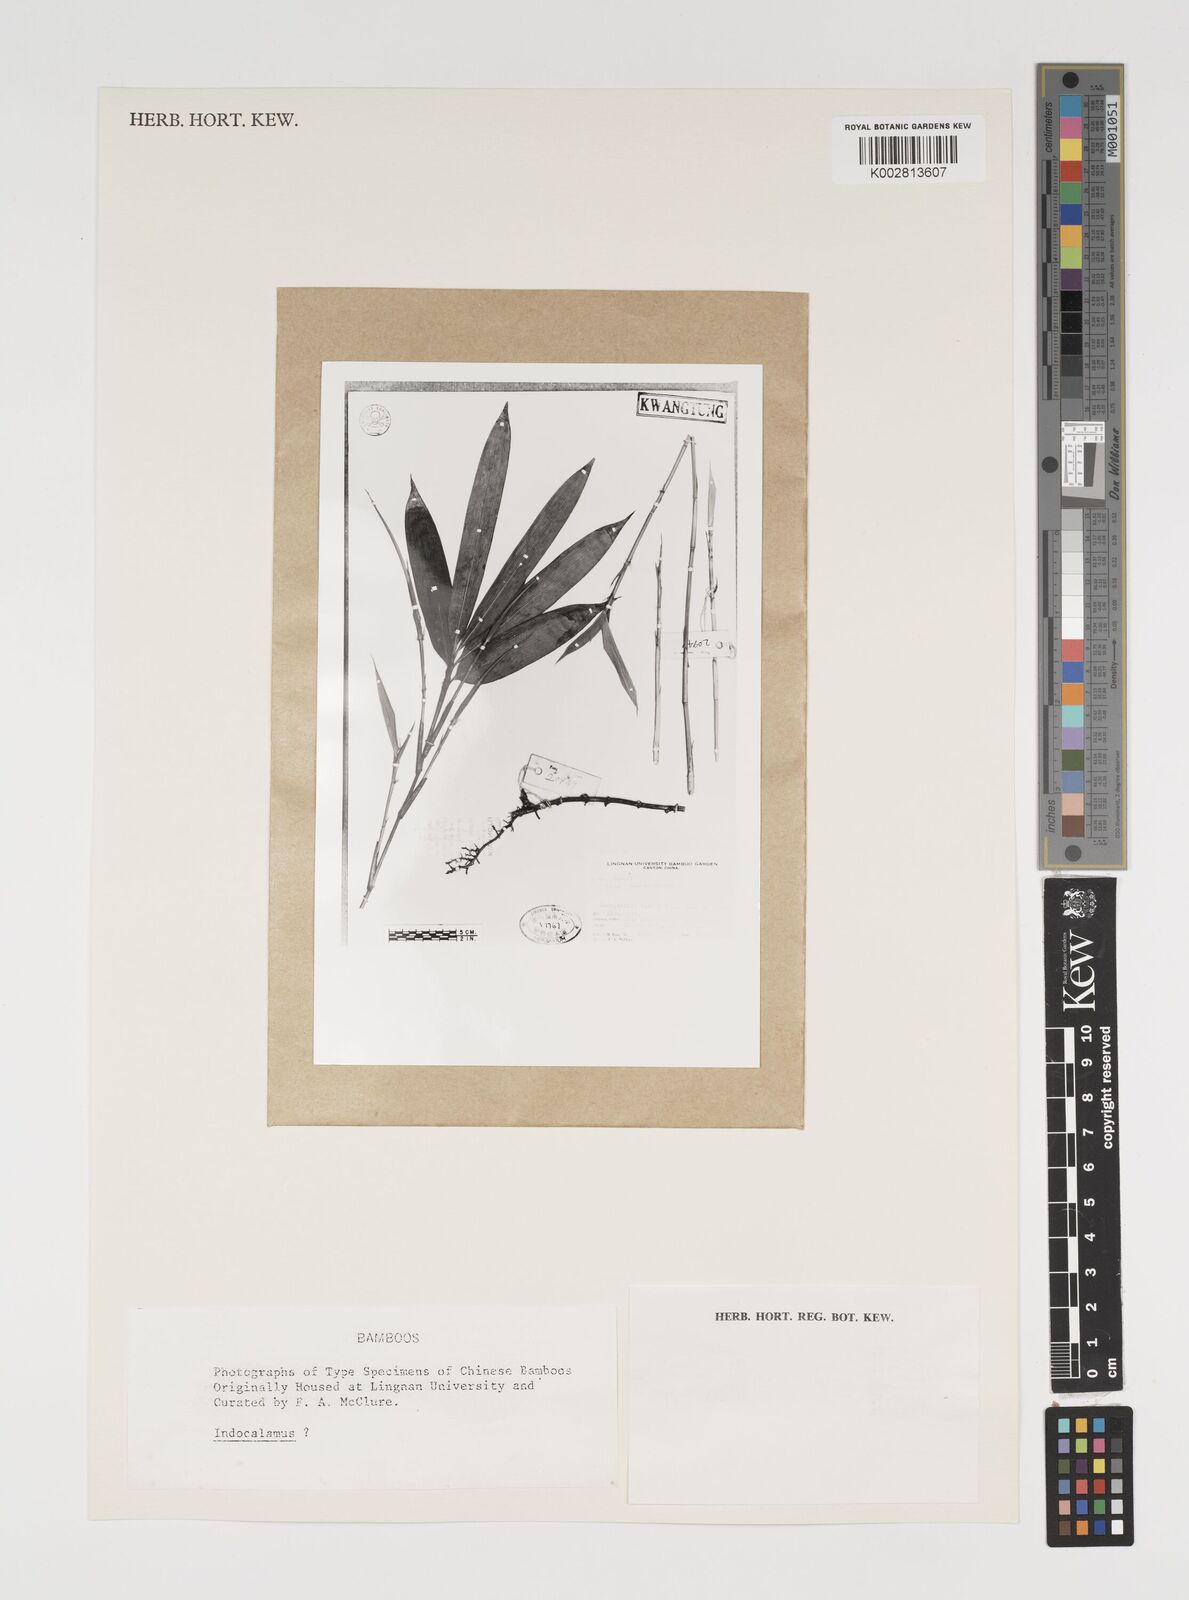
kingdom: Plantae
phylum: Tracheophyta
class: Liliopsida
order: Poales
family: Poaceae
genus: Indocalamus
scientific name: Indocalamus
